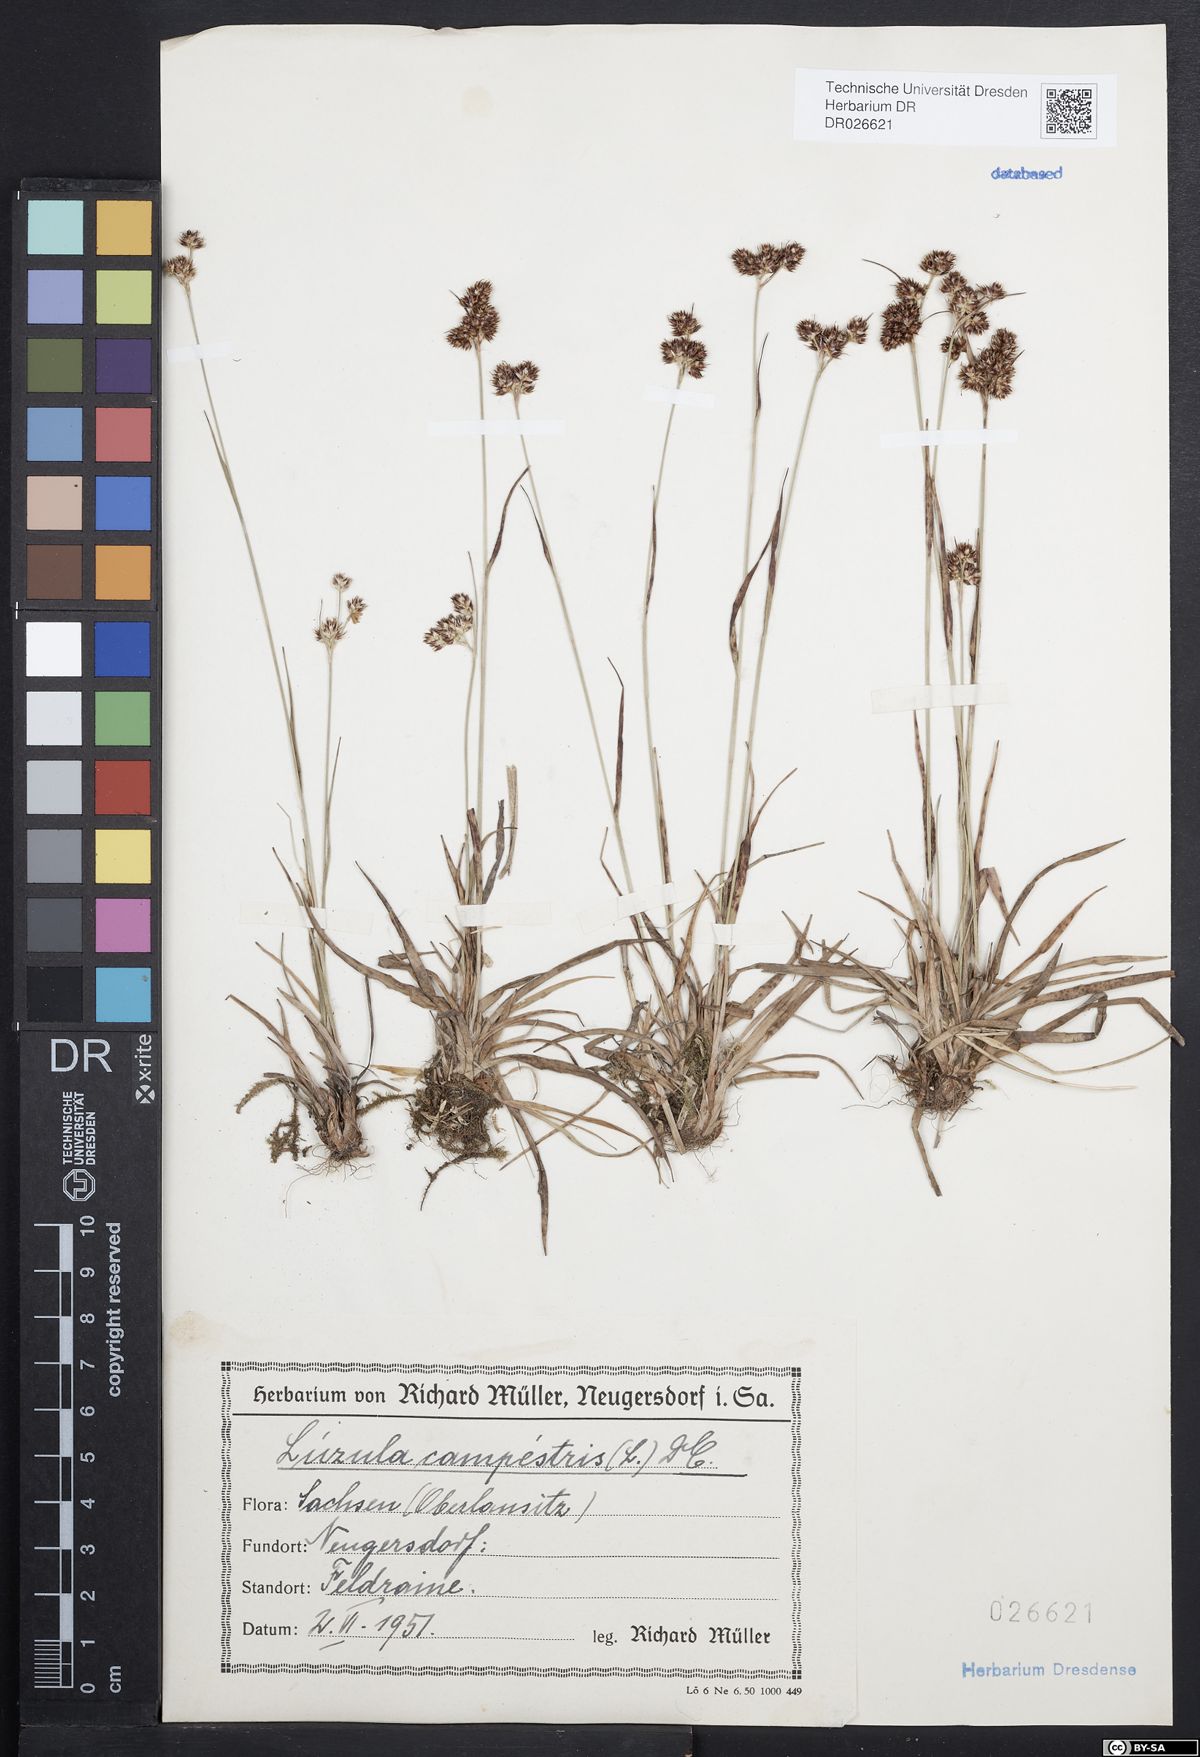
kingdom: Plantae
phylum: Tracheophyta
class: Liliopsida
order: Poales
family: Juncaceae
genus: Luzula
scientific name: Luzula campestris
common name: Field wood-rush
